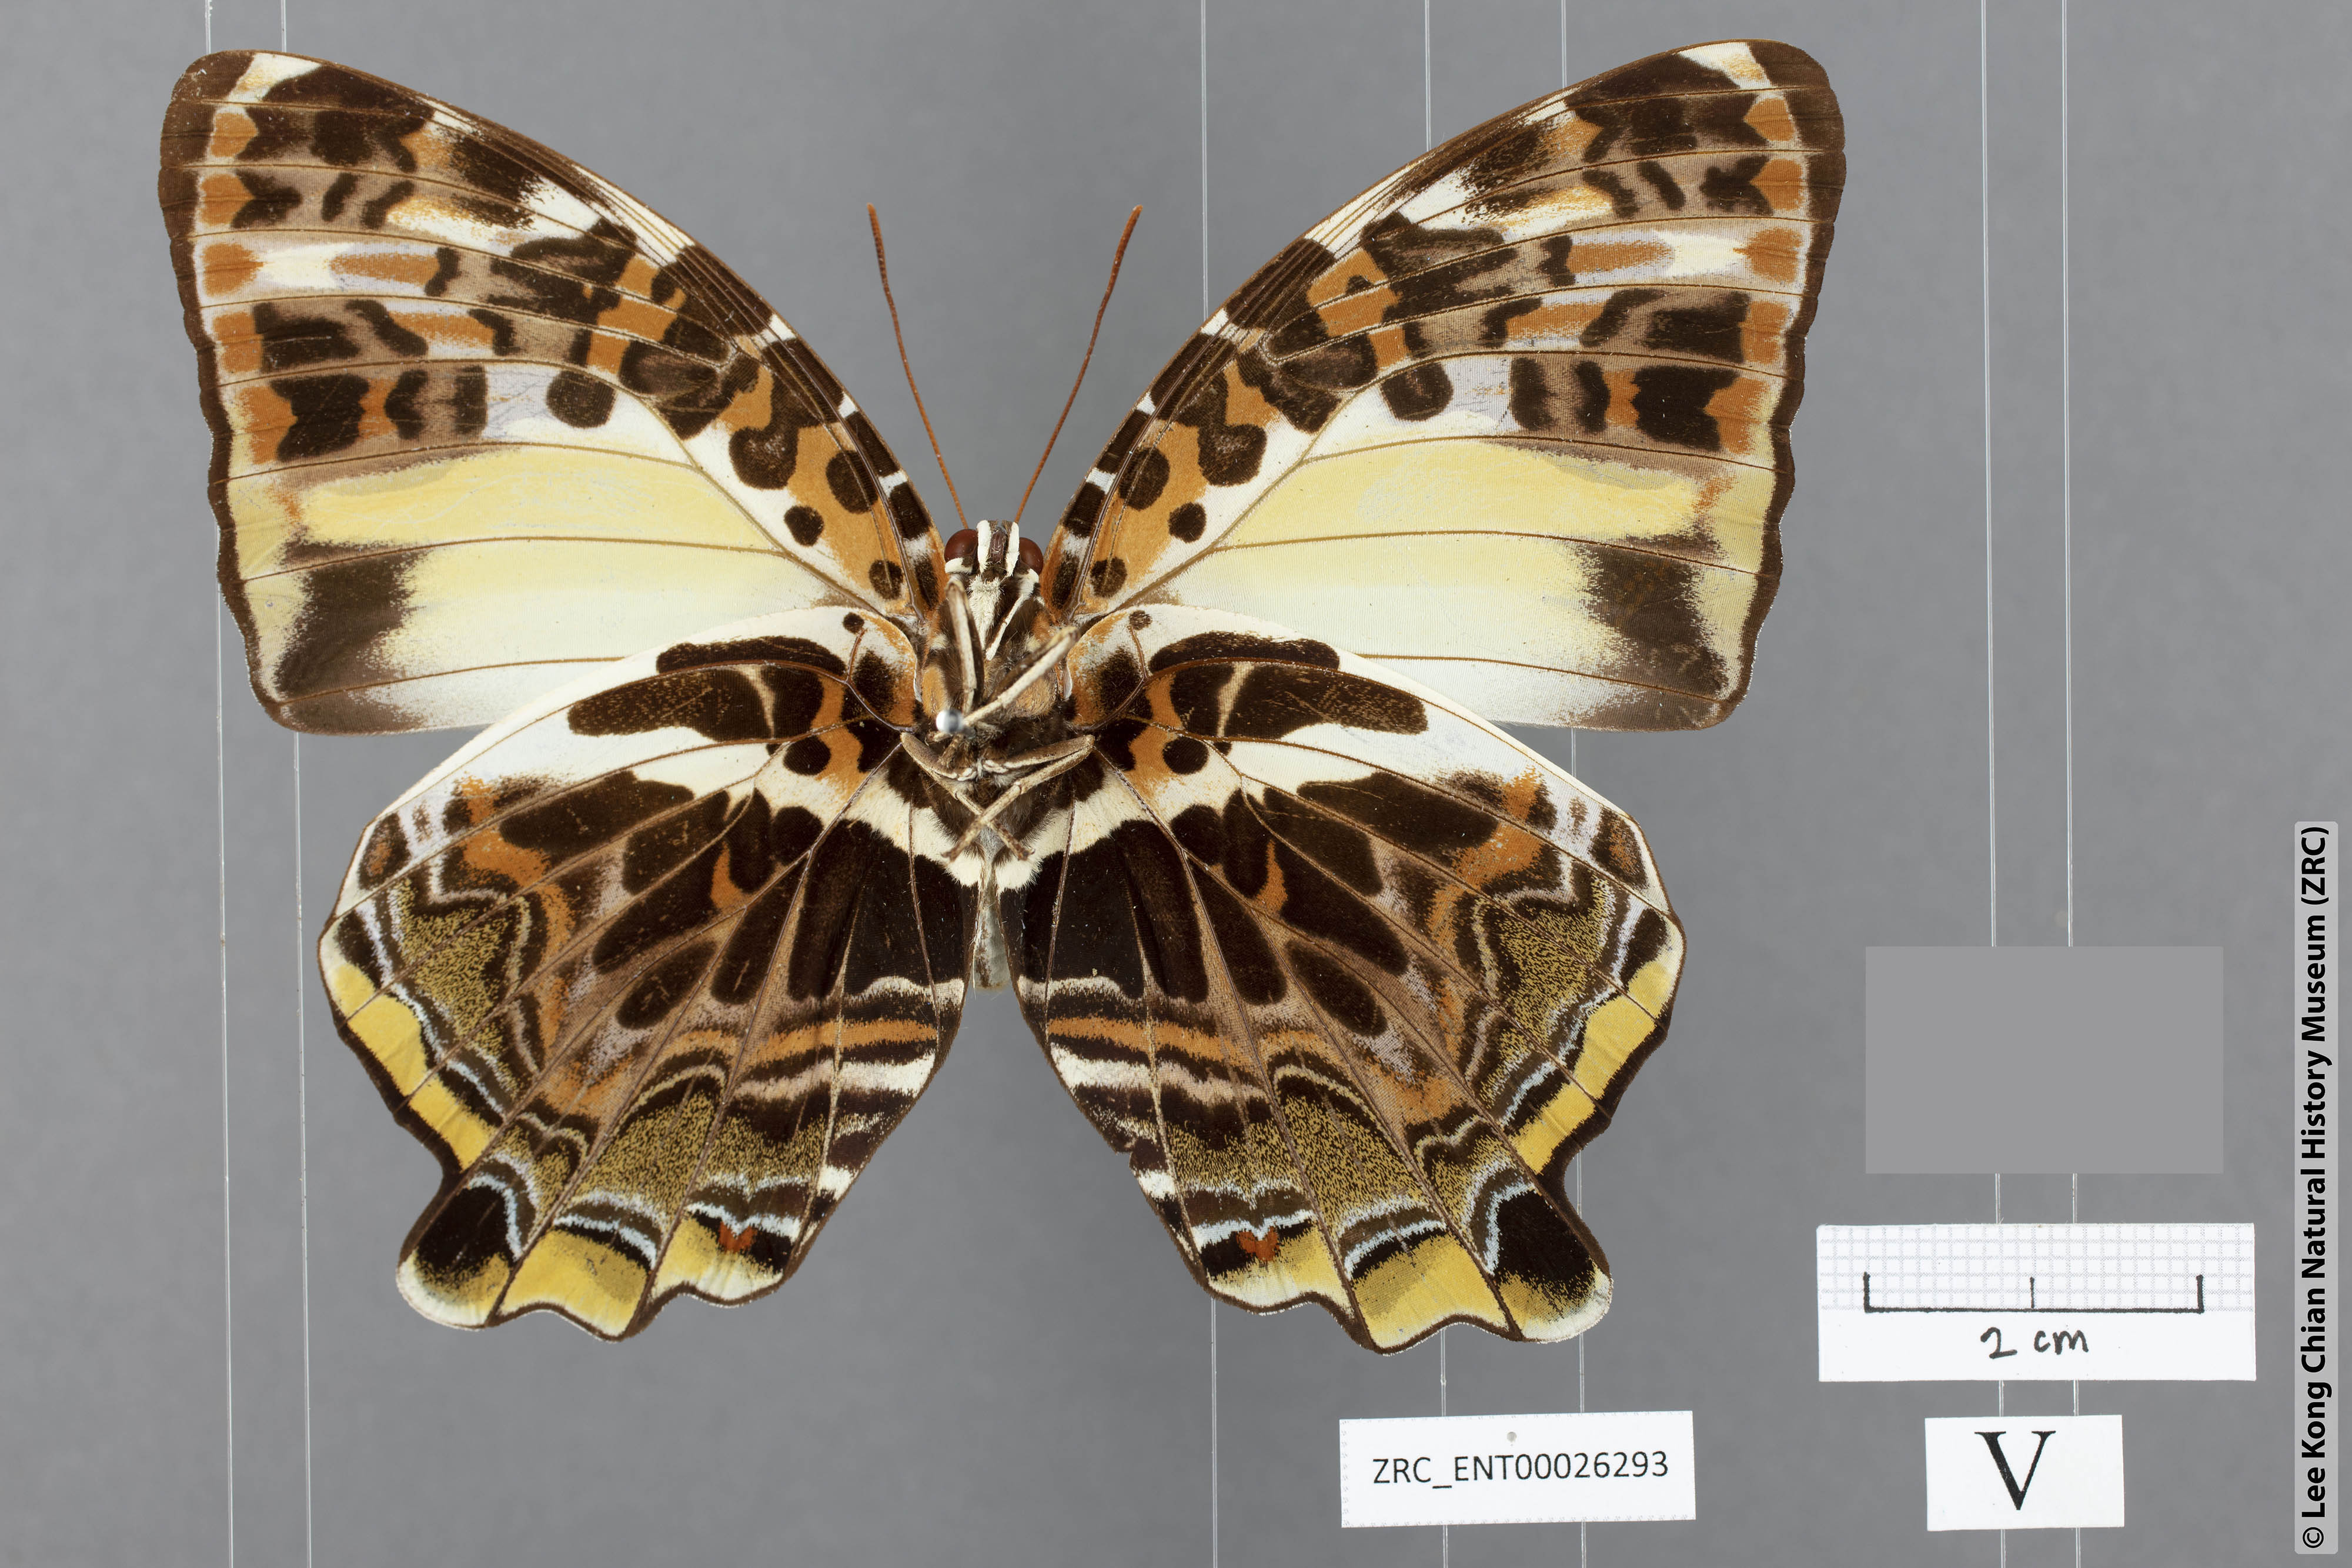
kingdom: Animalia
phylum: Arthropoda
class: Insecta
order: Lepidoptera
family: Nymphalidae
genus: Prothoe
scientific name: Prothoe Agatasa calydonia
